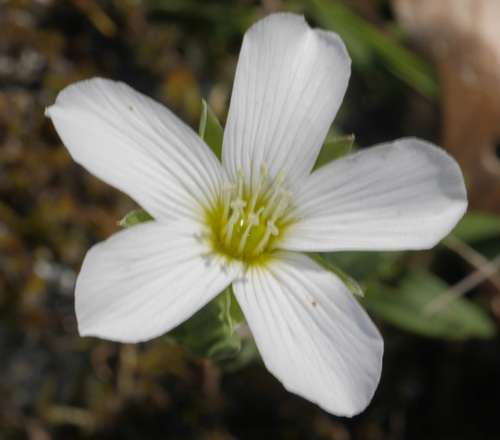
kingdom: Plantae
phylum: Tracheophyta
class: Magnoliopsida
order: Caryophyllales
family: Caryophyllaceae
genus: Arenaria
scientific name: Arenaria montana
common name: Mountain sandwort
